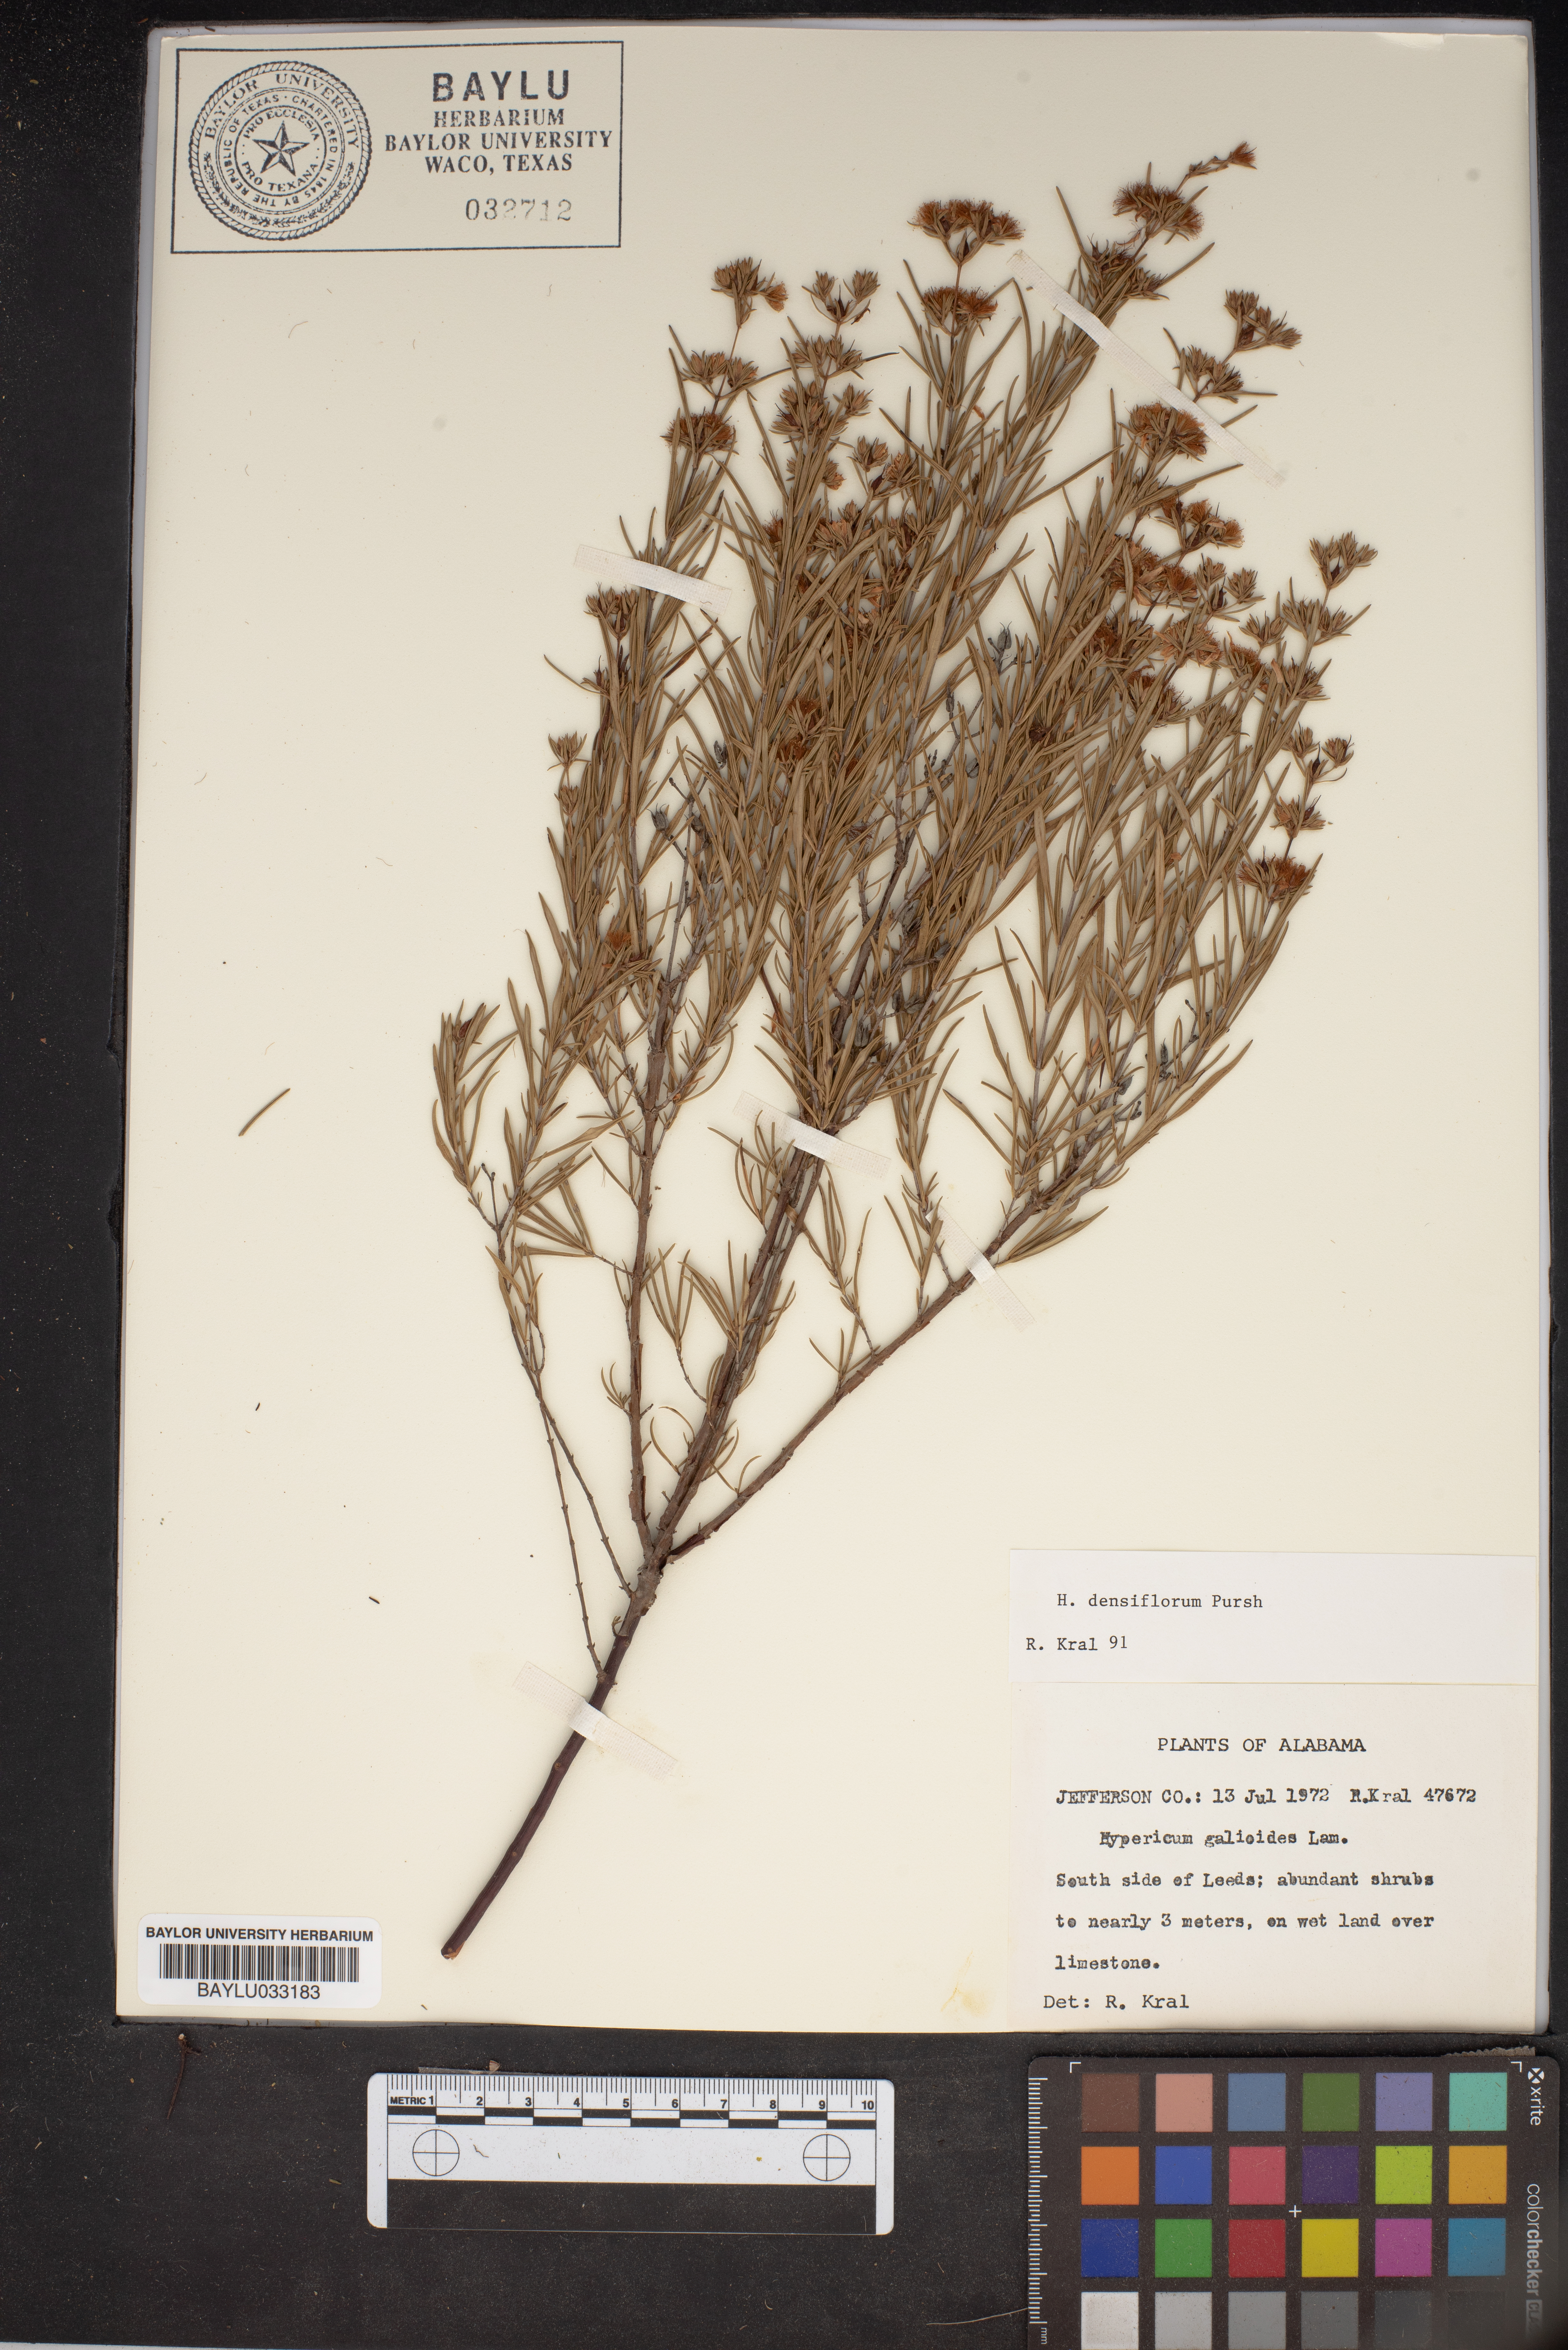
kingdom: Plantae
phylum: Tracheophyta
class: Magnoliopsida
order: Malpighiales
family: Hypericaceae
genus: Hypericum
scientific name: Hypericum densiflorum
